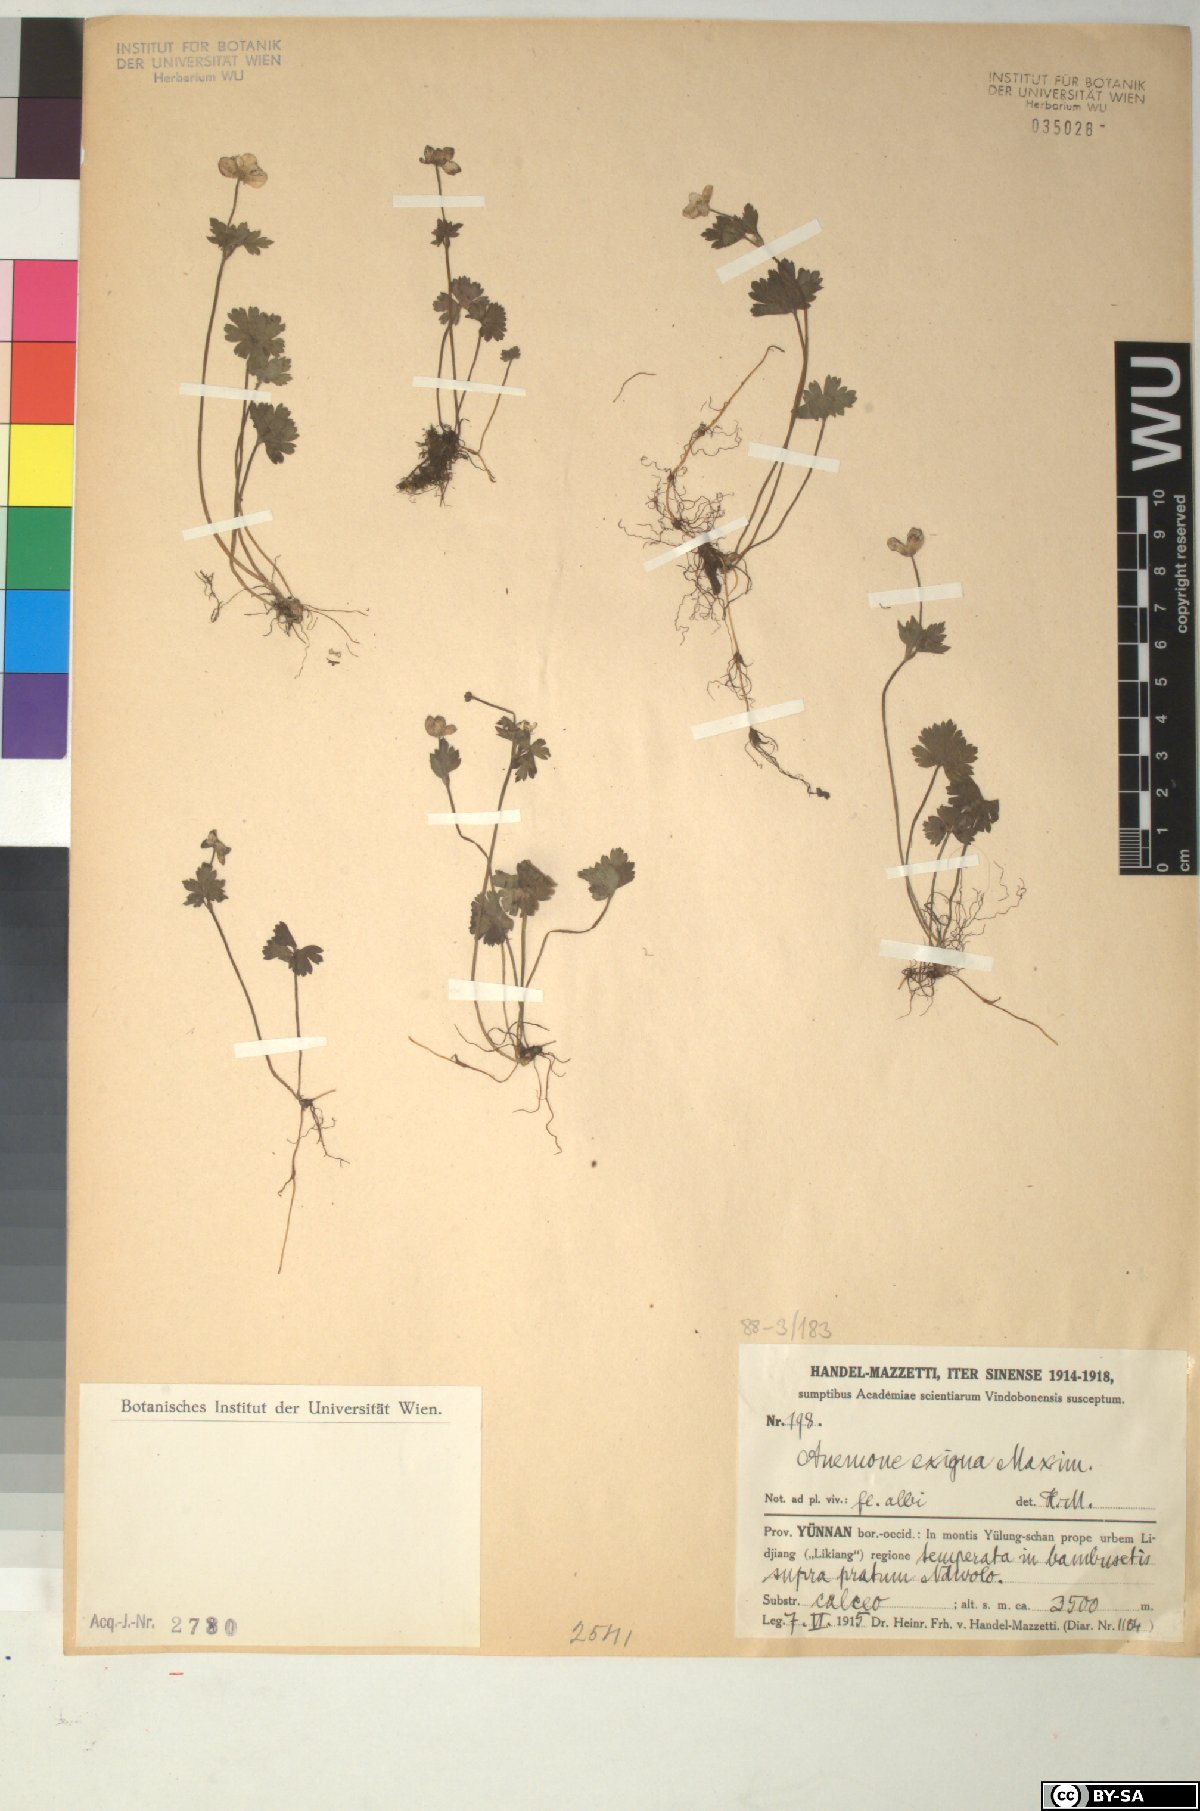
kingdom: Plantae
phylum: Tracheophyta
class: Magnoliopsida
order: Ranunculales
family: Ranunculaceae
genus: Anemone
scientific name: Anemone exigua
